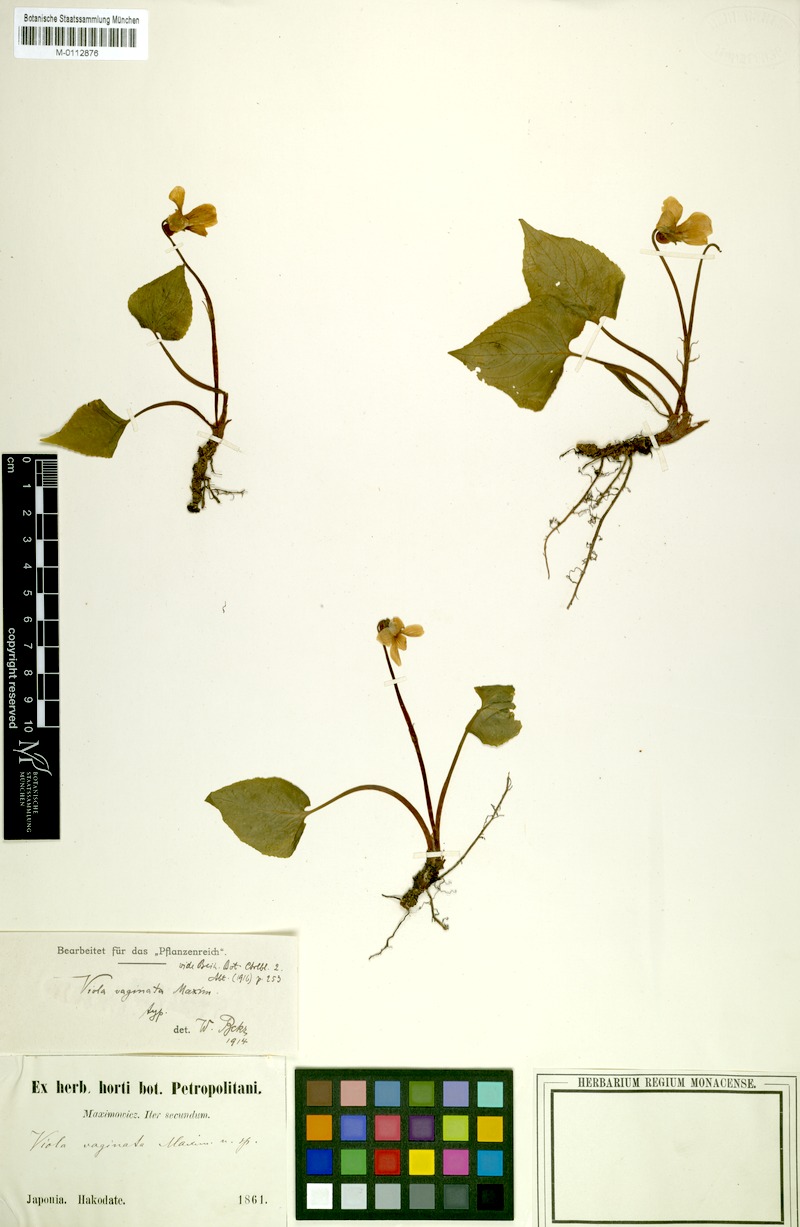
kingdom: Plantae
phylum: Tracheophyta
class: Magnoliopsida
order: Malpighiales
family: Violaceae
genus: Viola
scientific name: Viola vaginata
